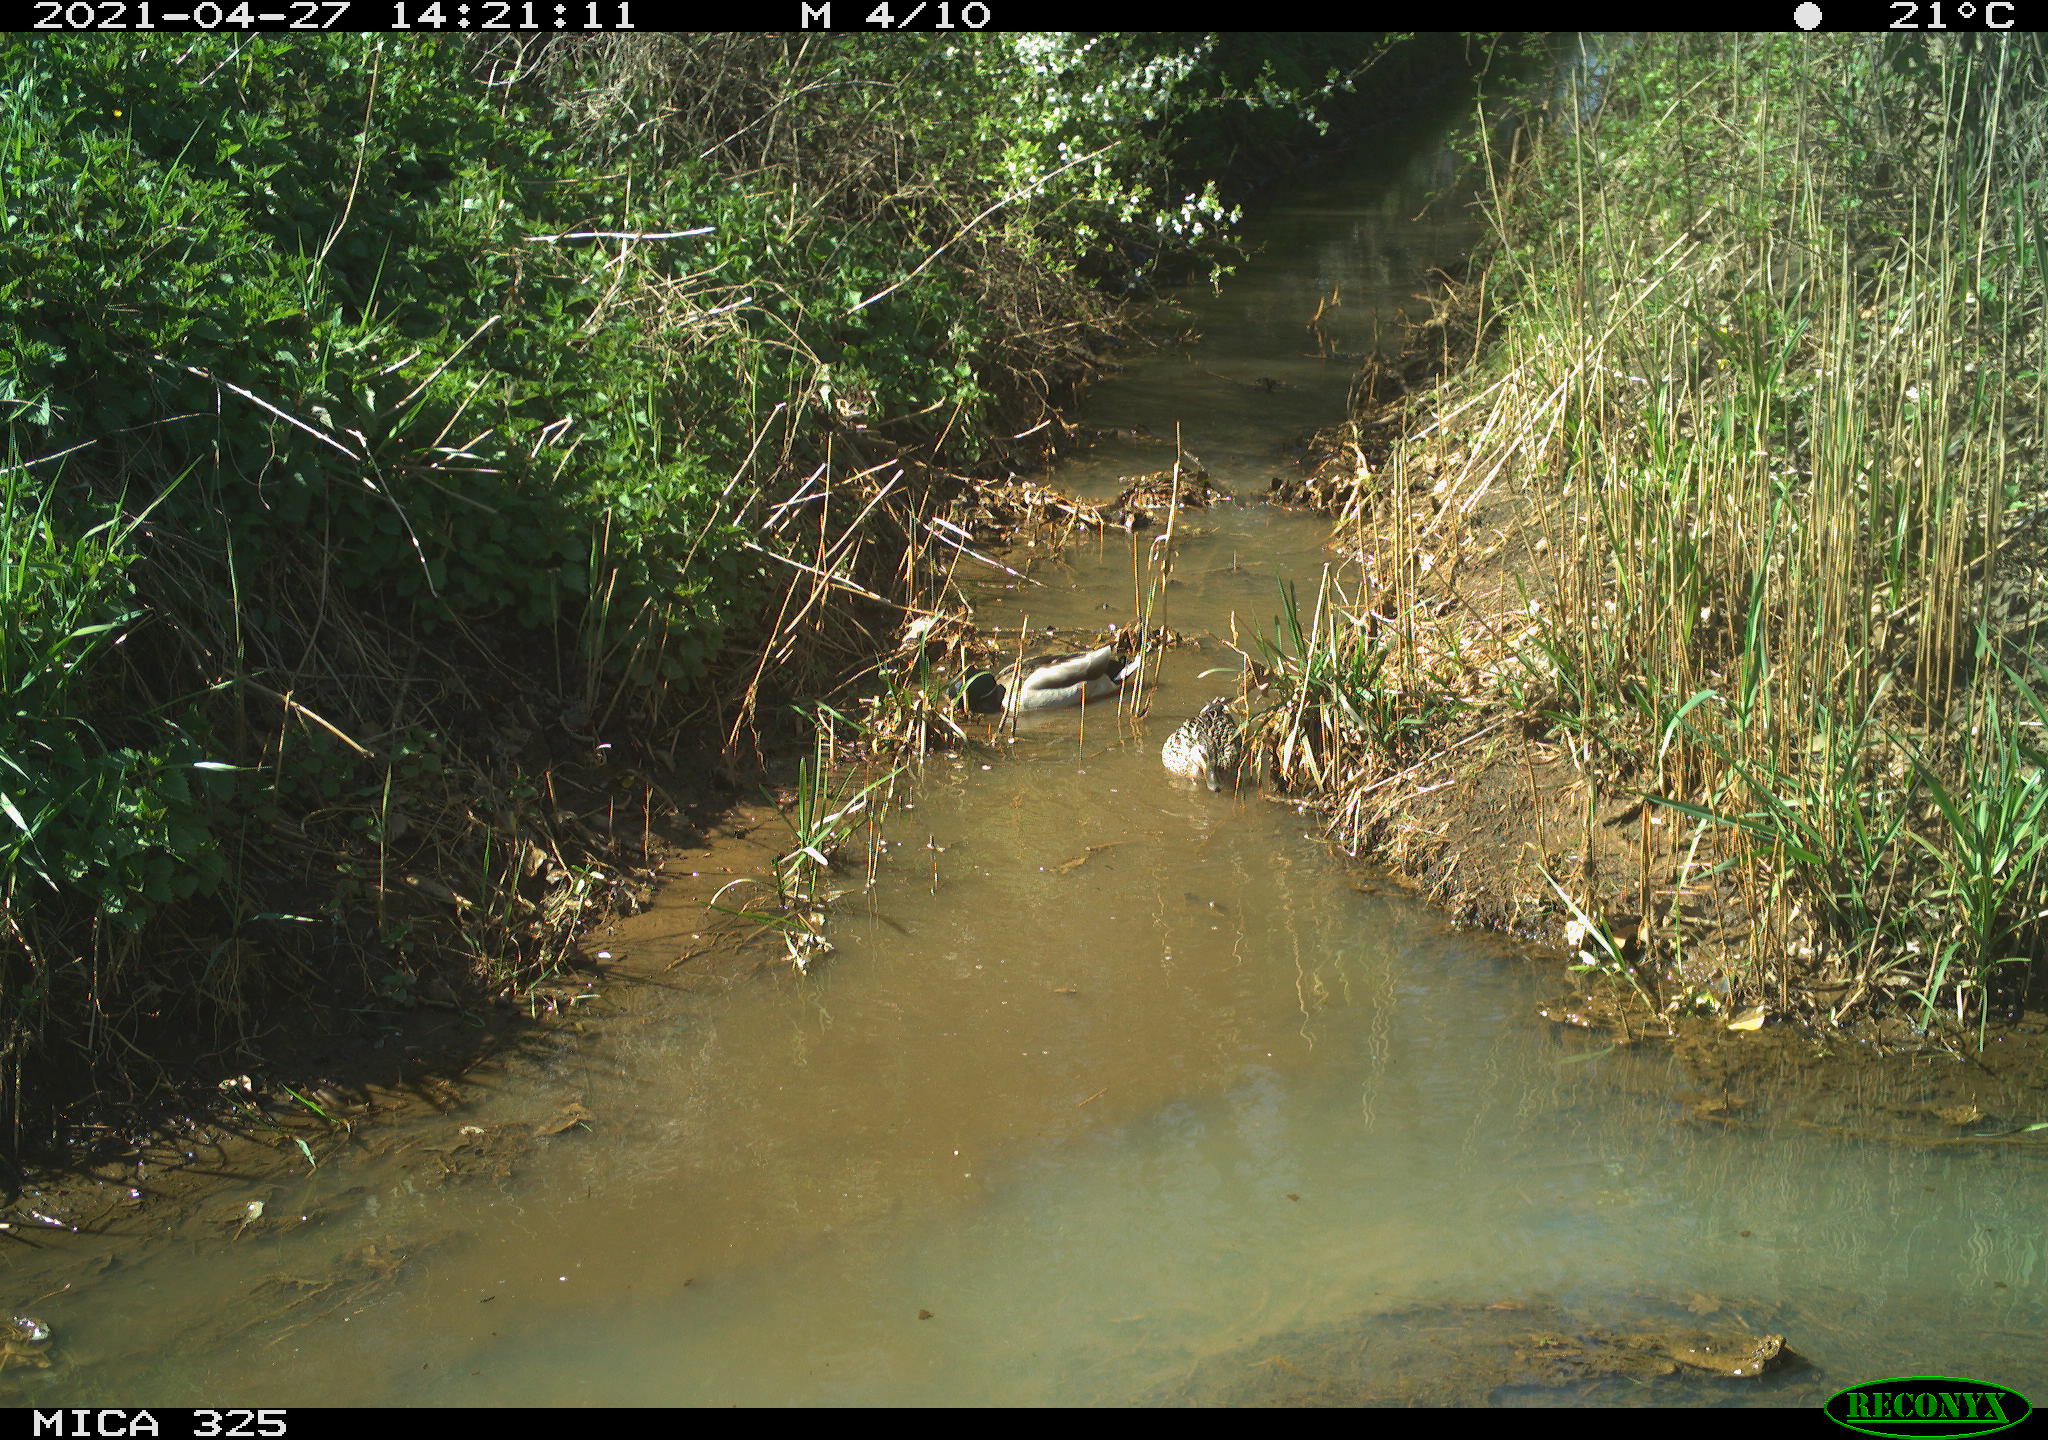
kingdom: Animalia
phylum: Chordata
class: Aves
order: Anseriformes
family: Anatidae
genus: Anas
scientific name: Anas platyrhynchos
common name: Mallard
